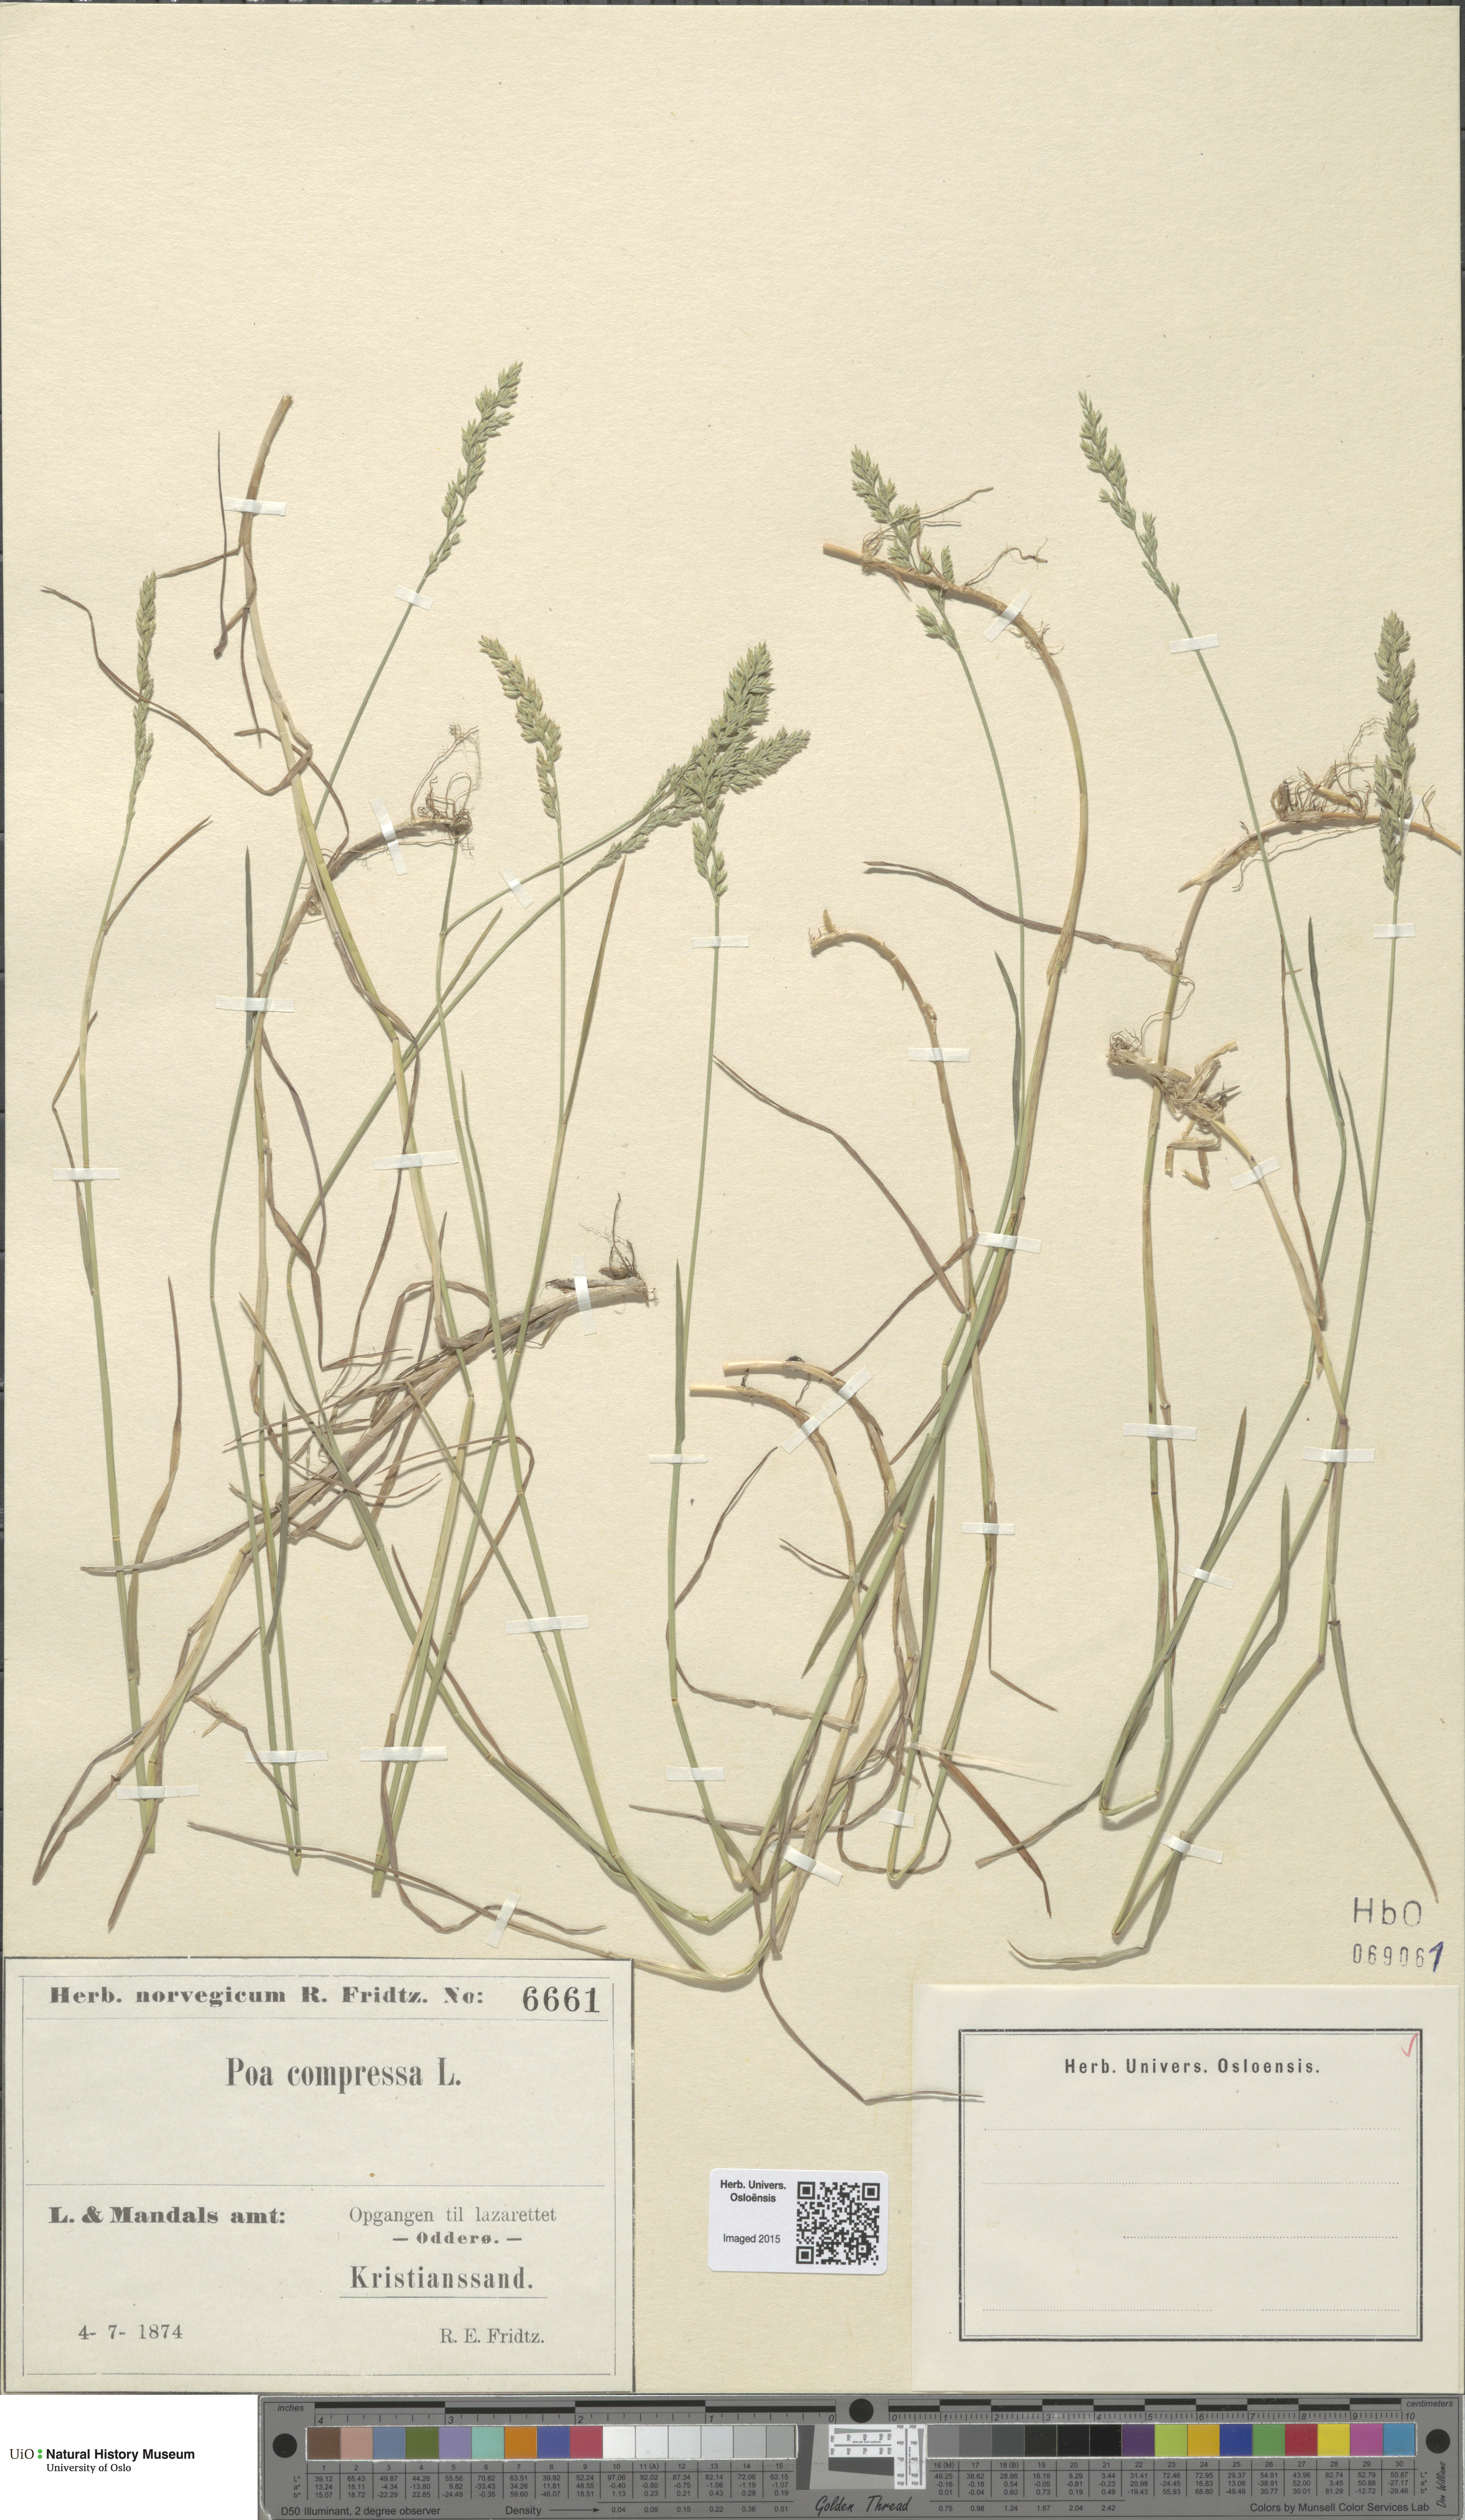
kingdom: Plantae
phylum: Tracheophyta
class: Liliopsida
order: Poales
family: Poaceae
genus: Poa
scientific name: Poa compressa
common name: Canada bluegrass
